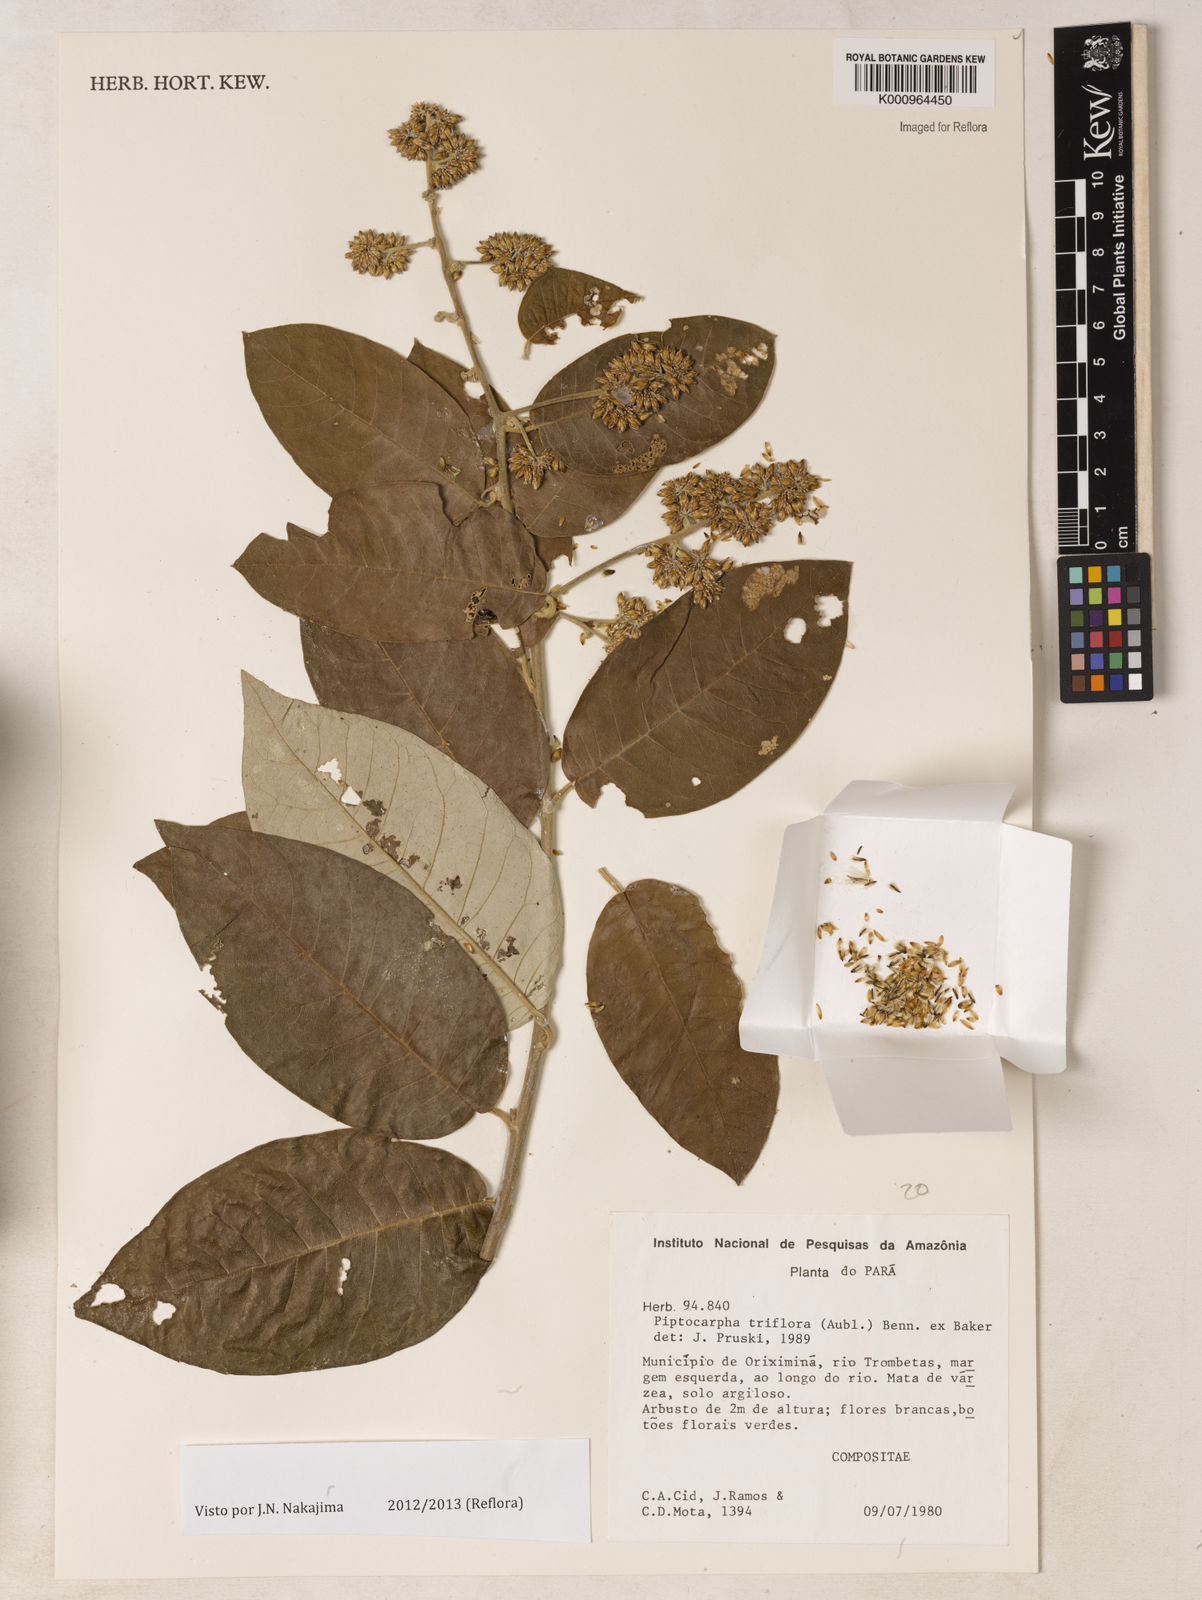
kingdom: Plantae
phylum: Tracheophyta
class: Magnoliopsida
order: Asterales
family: Asteraceae
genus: Piptocarpha
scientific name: Piptocarpha triflora
